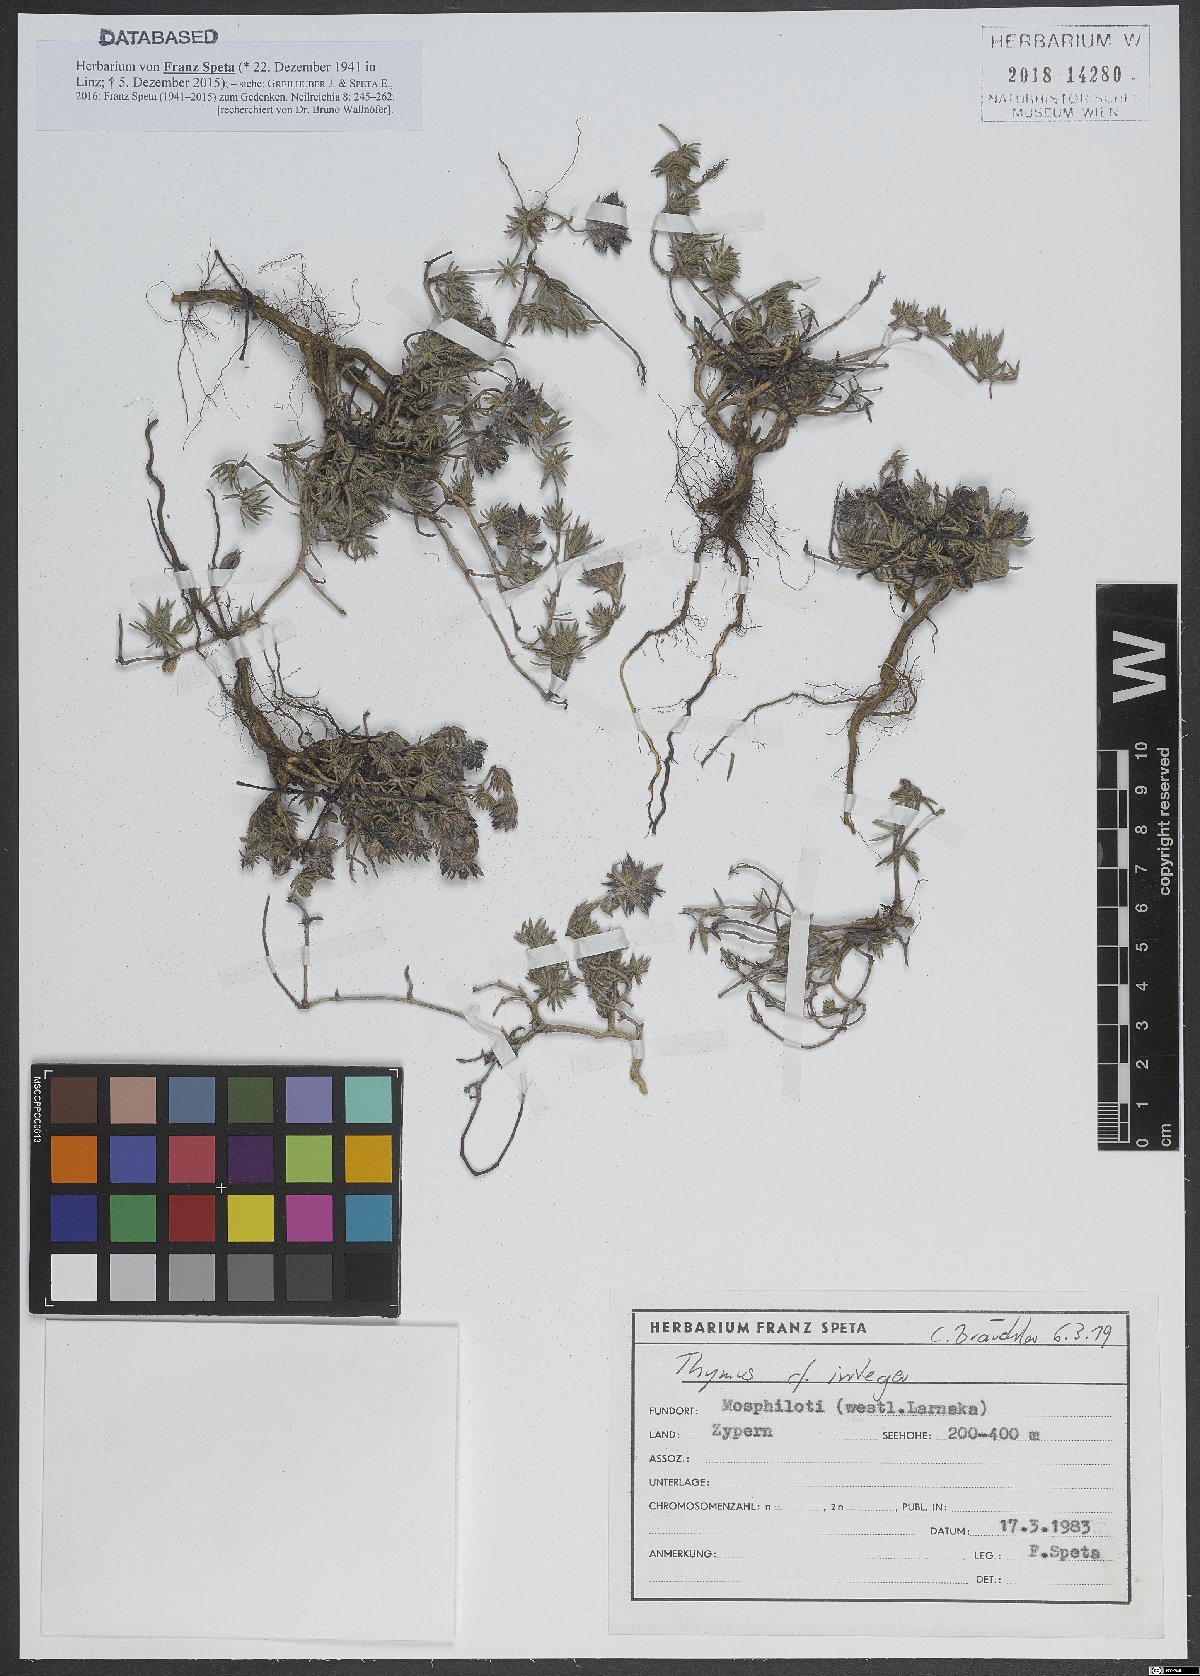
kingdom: Plantae
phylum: Tracheophyta
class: Magnoliopsida
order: Lamiales
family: Lamiaceae
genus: Thymus
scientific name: Thymus integer
